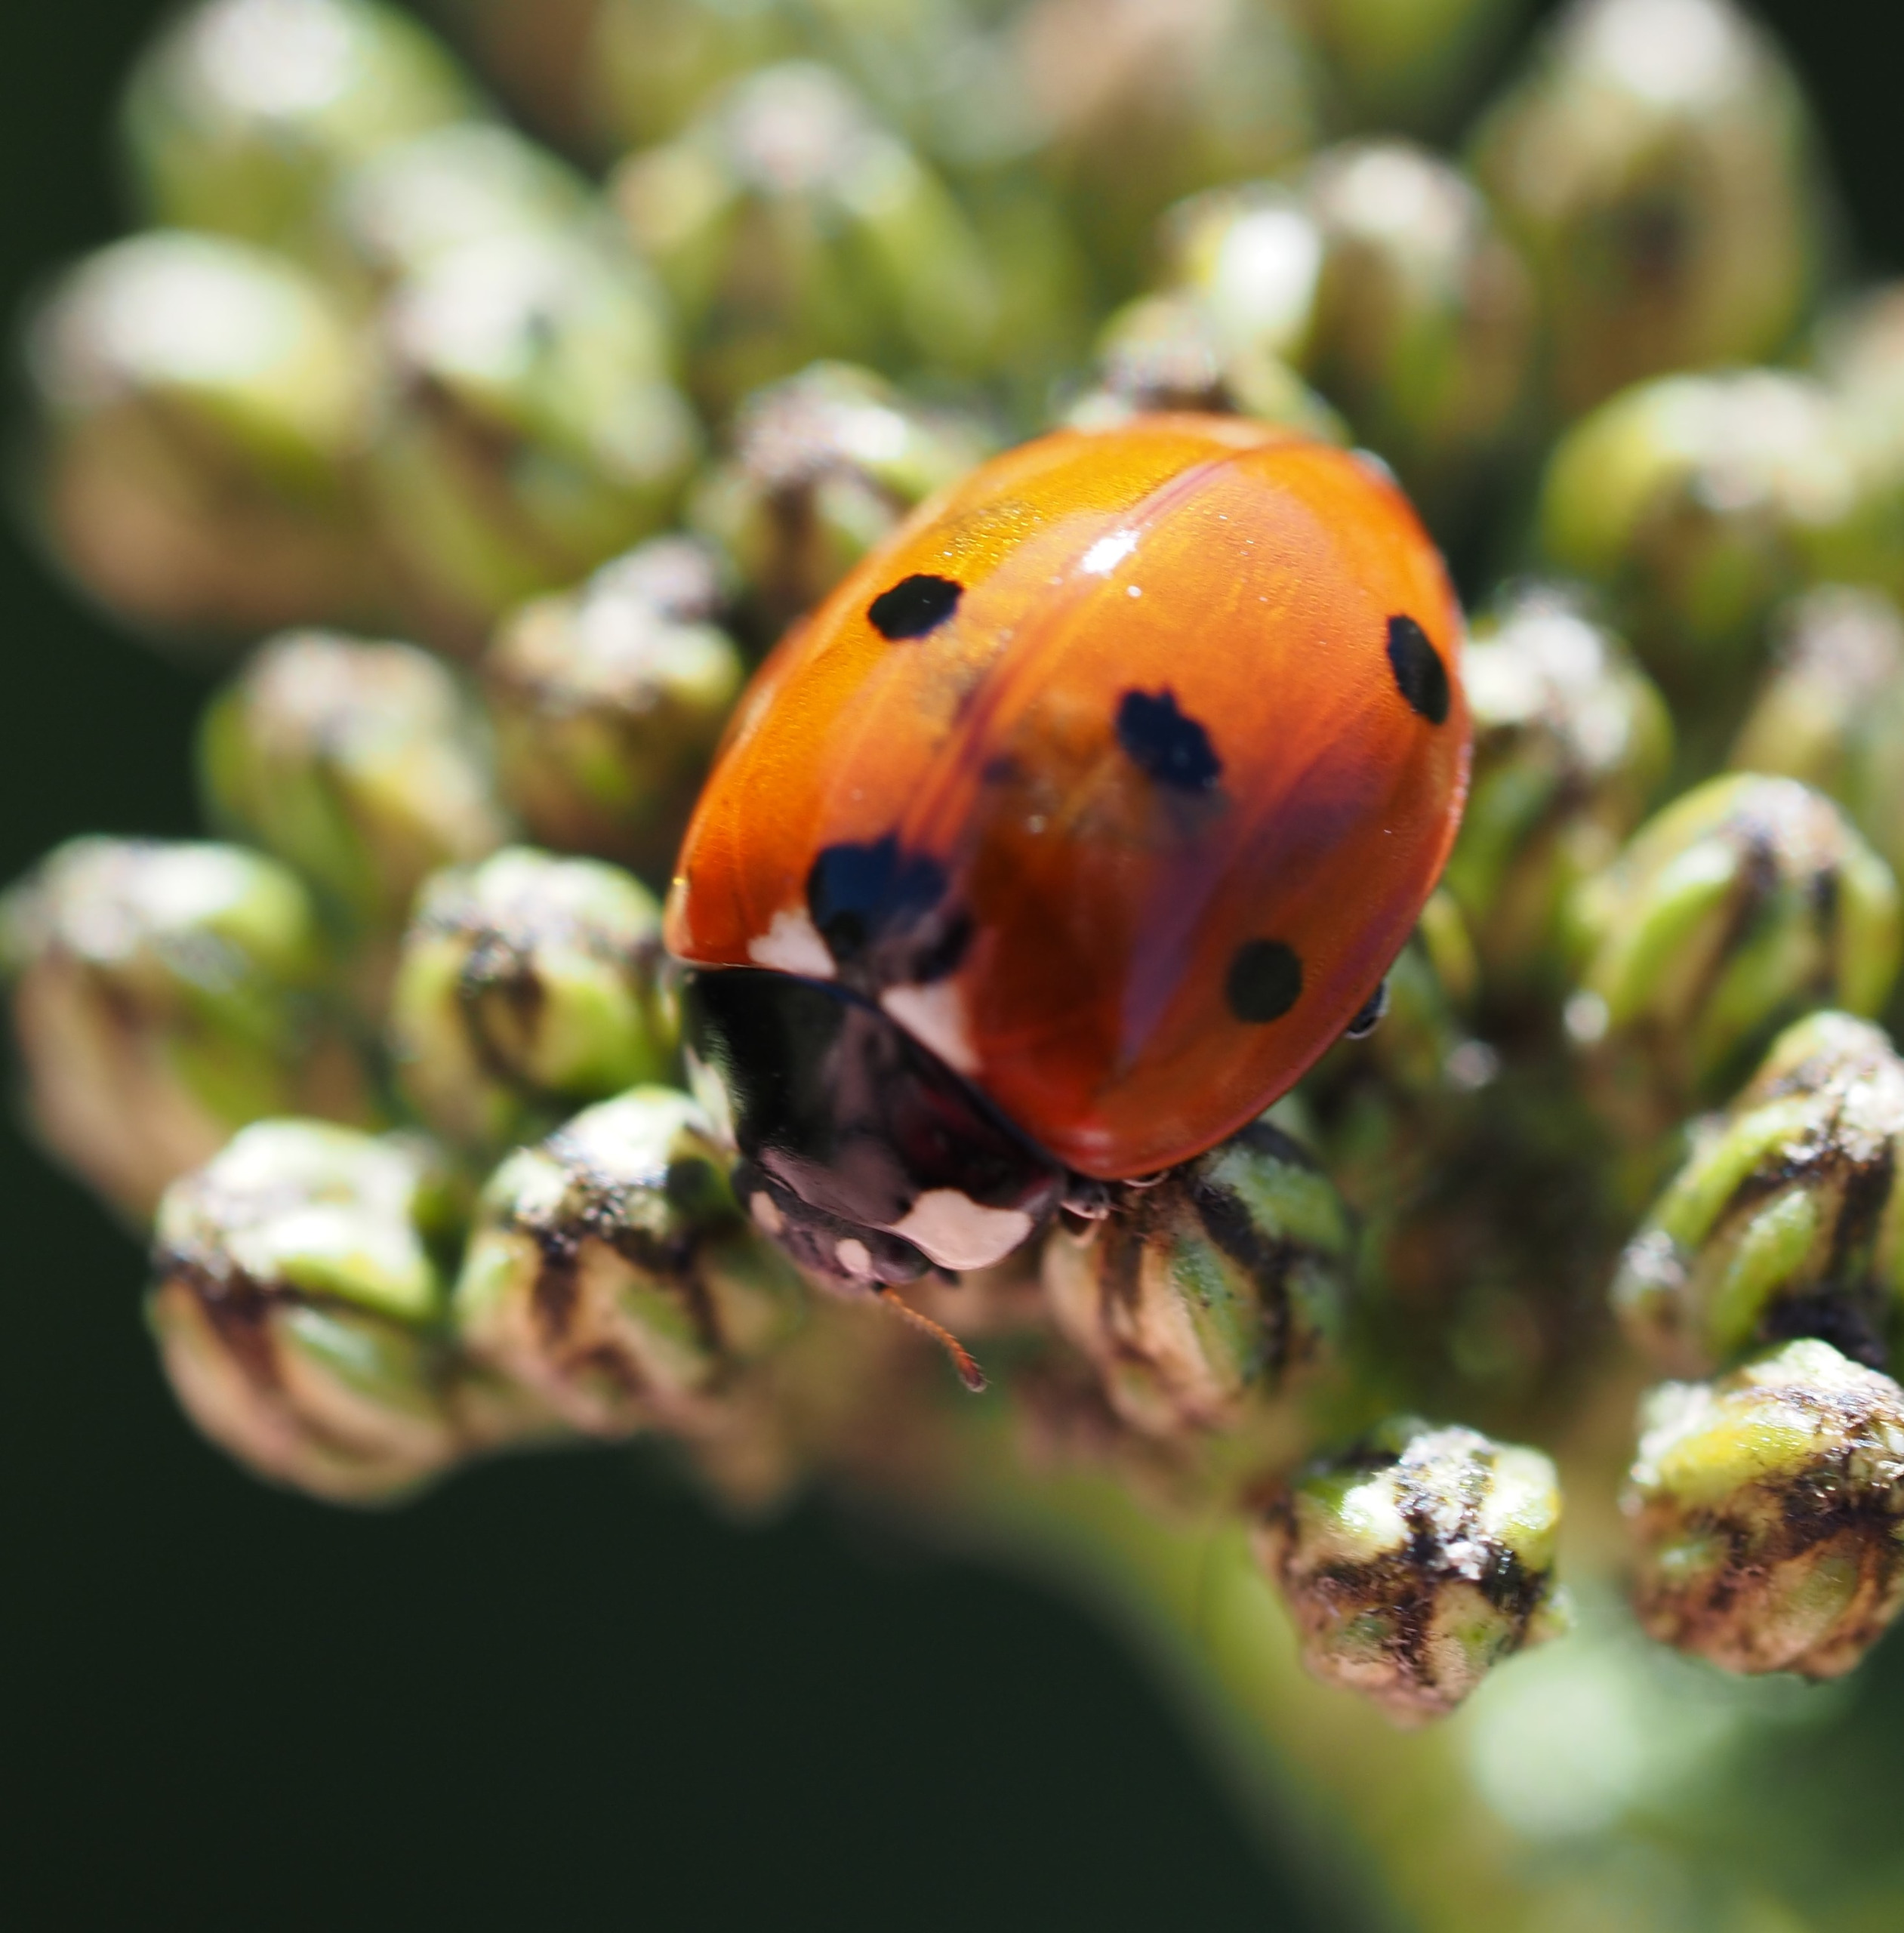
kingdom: Animalia
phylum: Arthropoda
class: Insecta
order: Coleoptera
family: Coccinellidae
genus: Coccinella
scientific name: Coccinella septempunctata
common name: Syvplettet mariehøne
